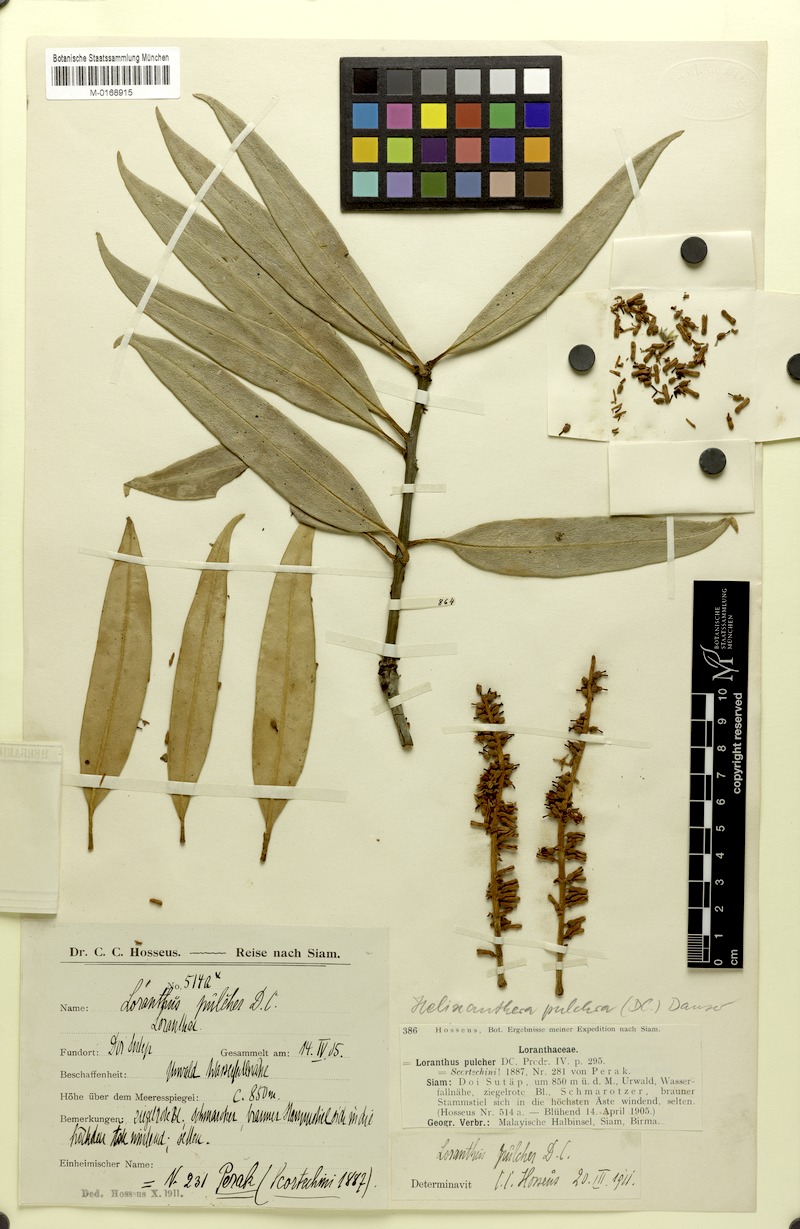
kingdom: Plantae
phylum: Tracheophyta
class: Magnoliopsida
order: Santalales
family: Loranthaceae
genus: Helixanthera
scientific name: Helixanthera pulchra
